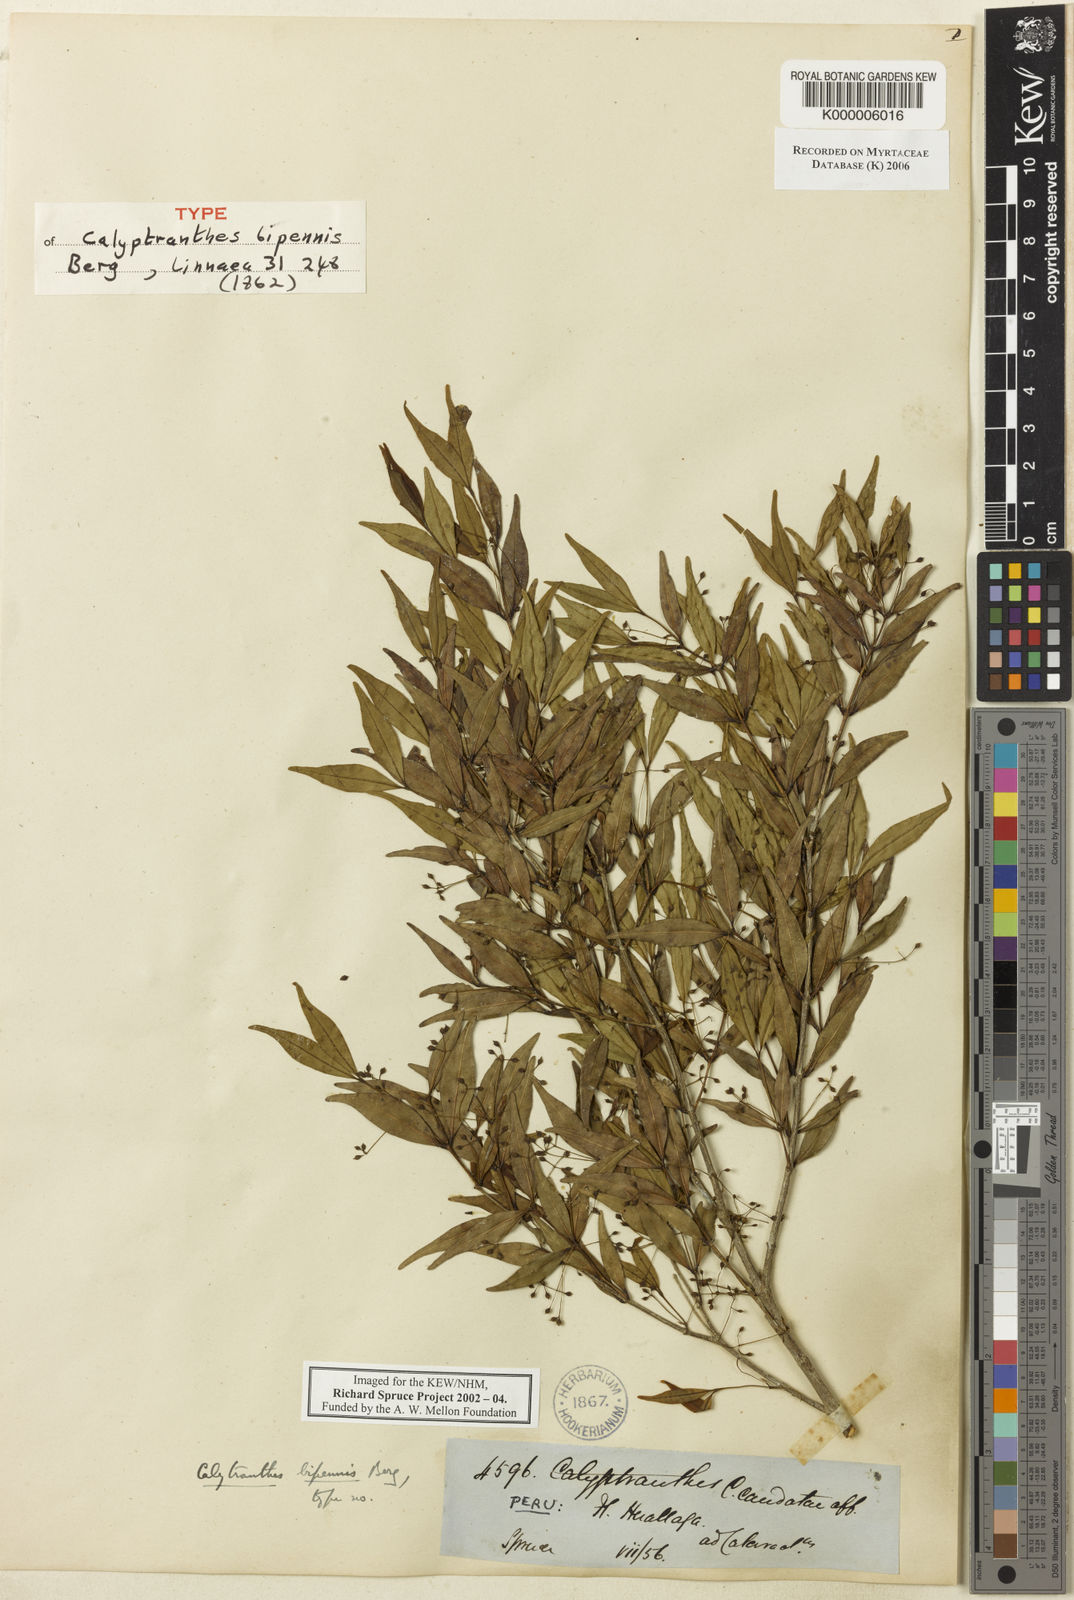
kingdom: Plantae
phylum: Tracheophyta
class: Magnoliopsida
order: Myrtales
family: Myrtaceae
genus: Myrcia
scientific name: Myrcia tenuiflora
